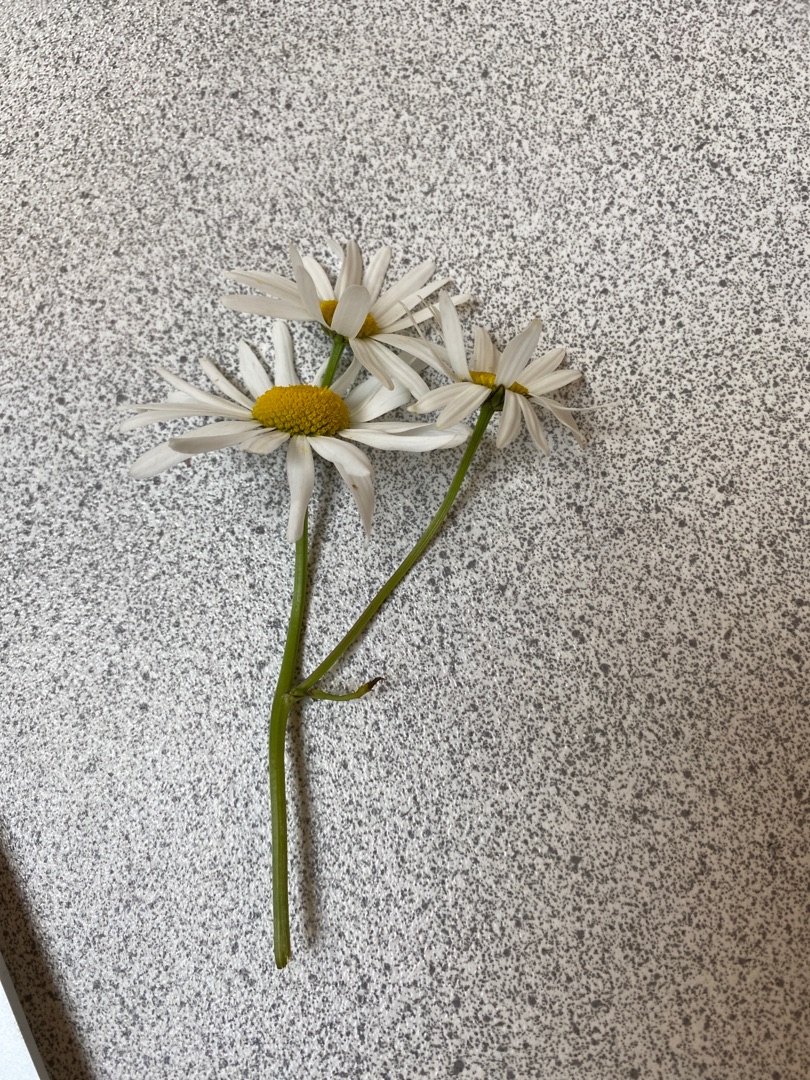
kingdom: Plantae
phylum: Tracheophyta
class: Magnoliopsida
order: Asterales
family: Asteraceae
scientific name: Asteraceae
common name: Kurvblomstfamilien
